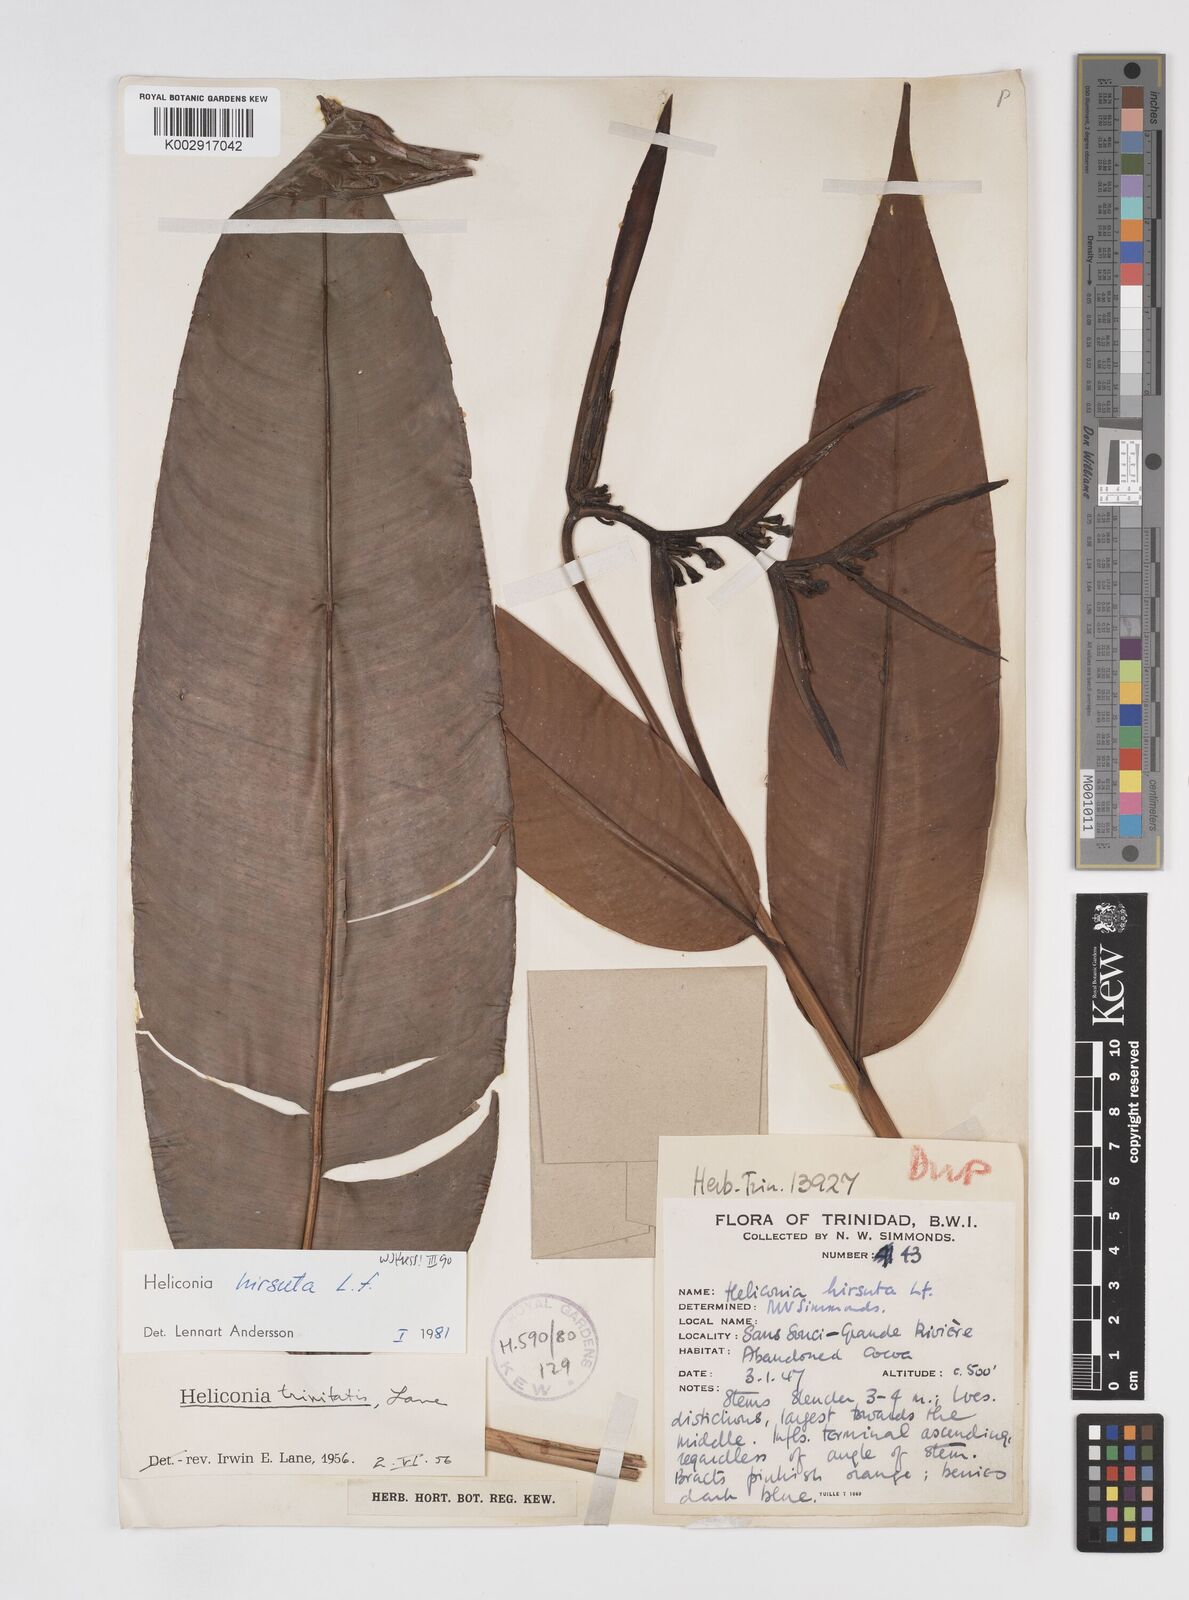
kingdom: Plantae
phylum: Tracheophyta
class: Liliopsida
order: Zingiberales
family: Heliconiaceae
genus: Heliconia
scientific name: Heliconia hirsuta
